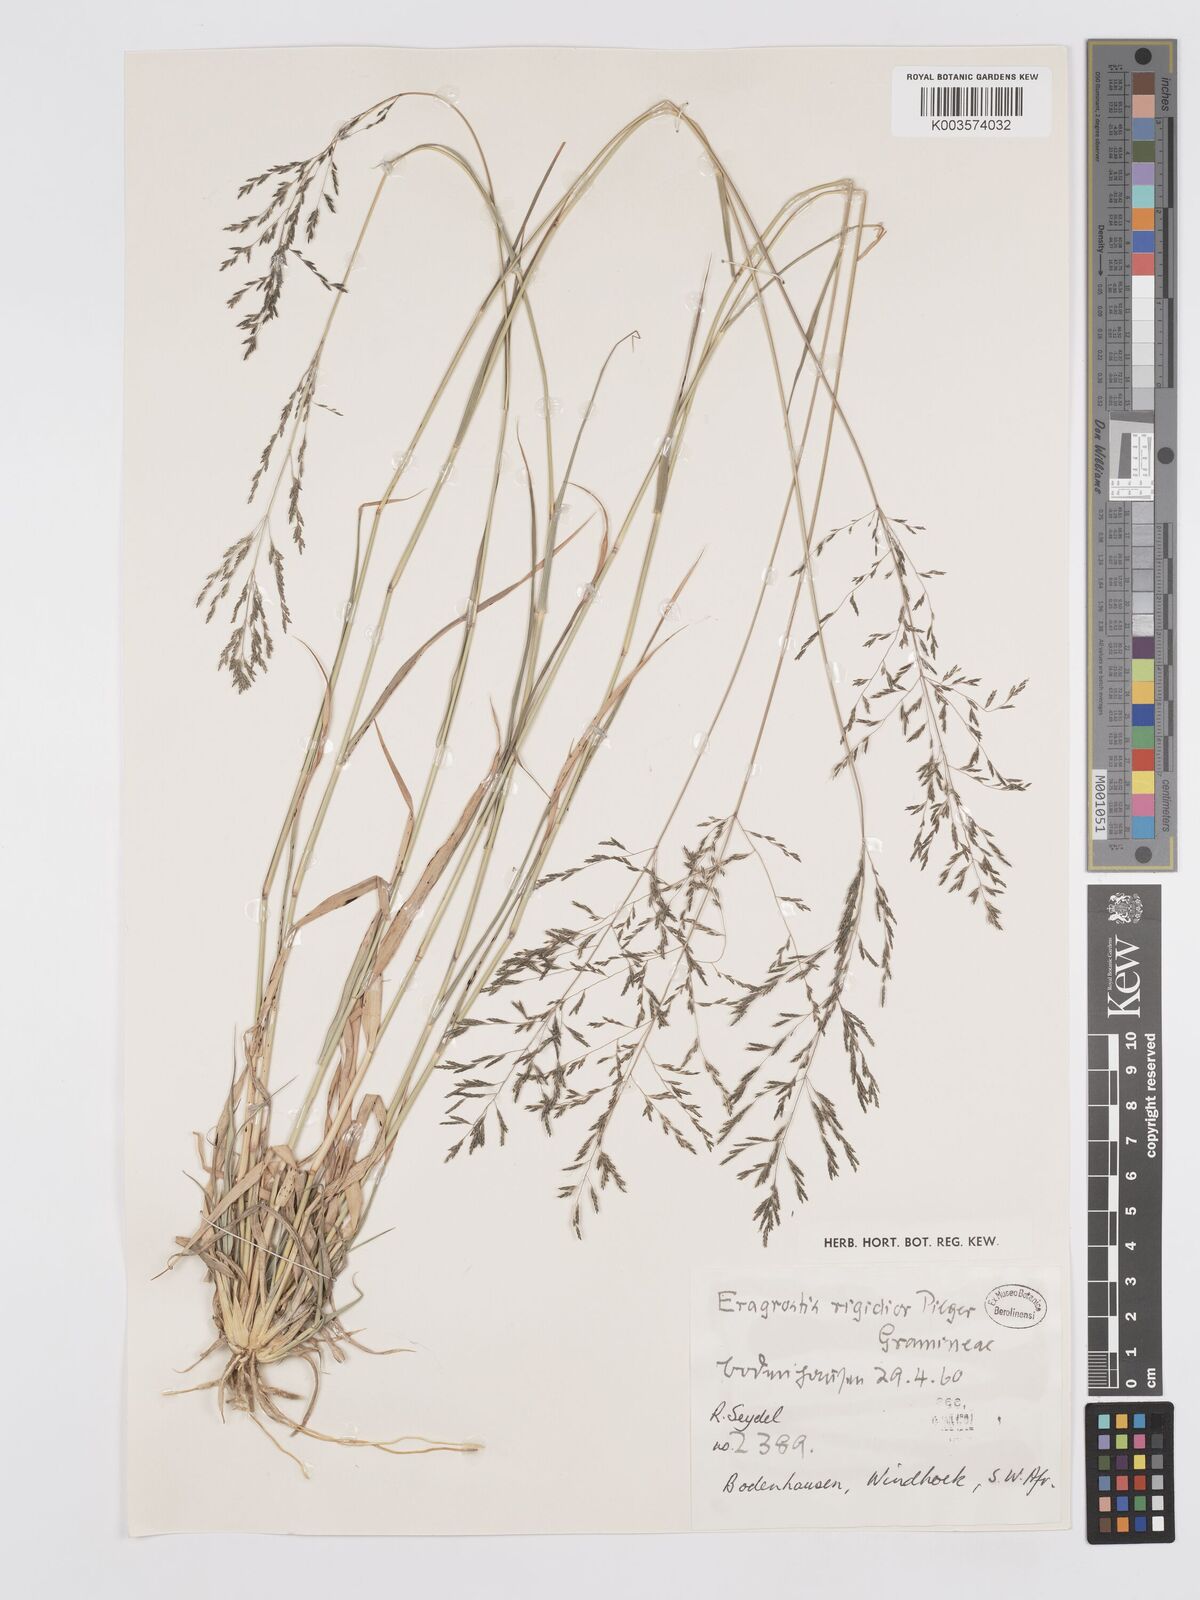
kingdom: Plantae
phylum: Tracheophyta
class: Liliopsida
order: Poales
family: Poaceae
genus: Eragrostis
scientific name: Eragrostis cylindriflora
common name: Cylinderflower lovegrass
